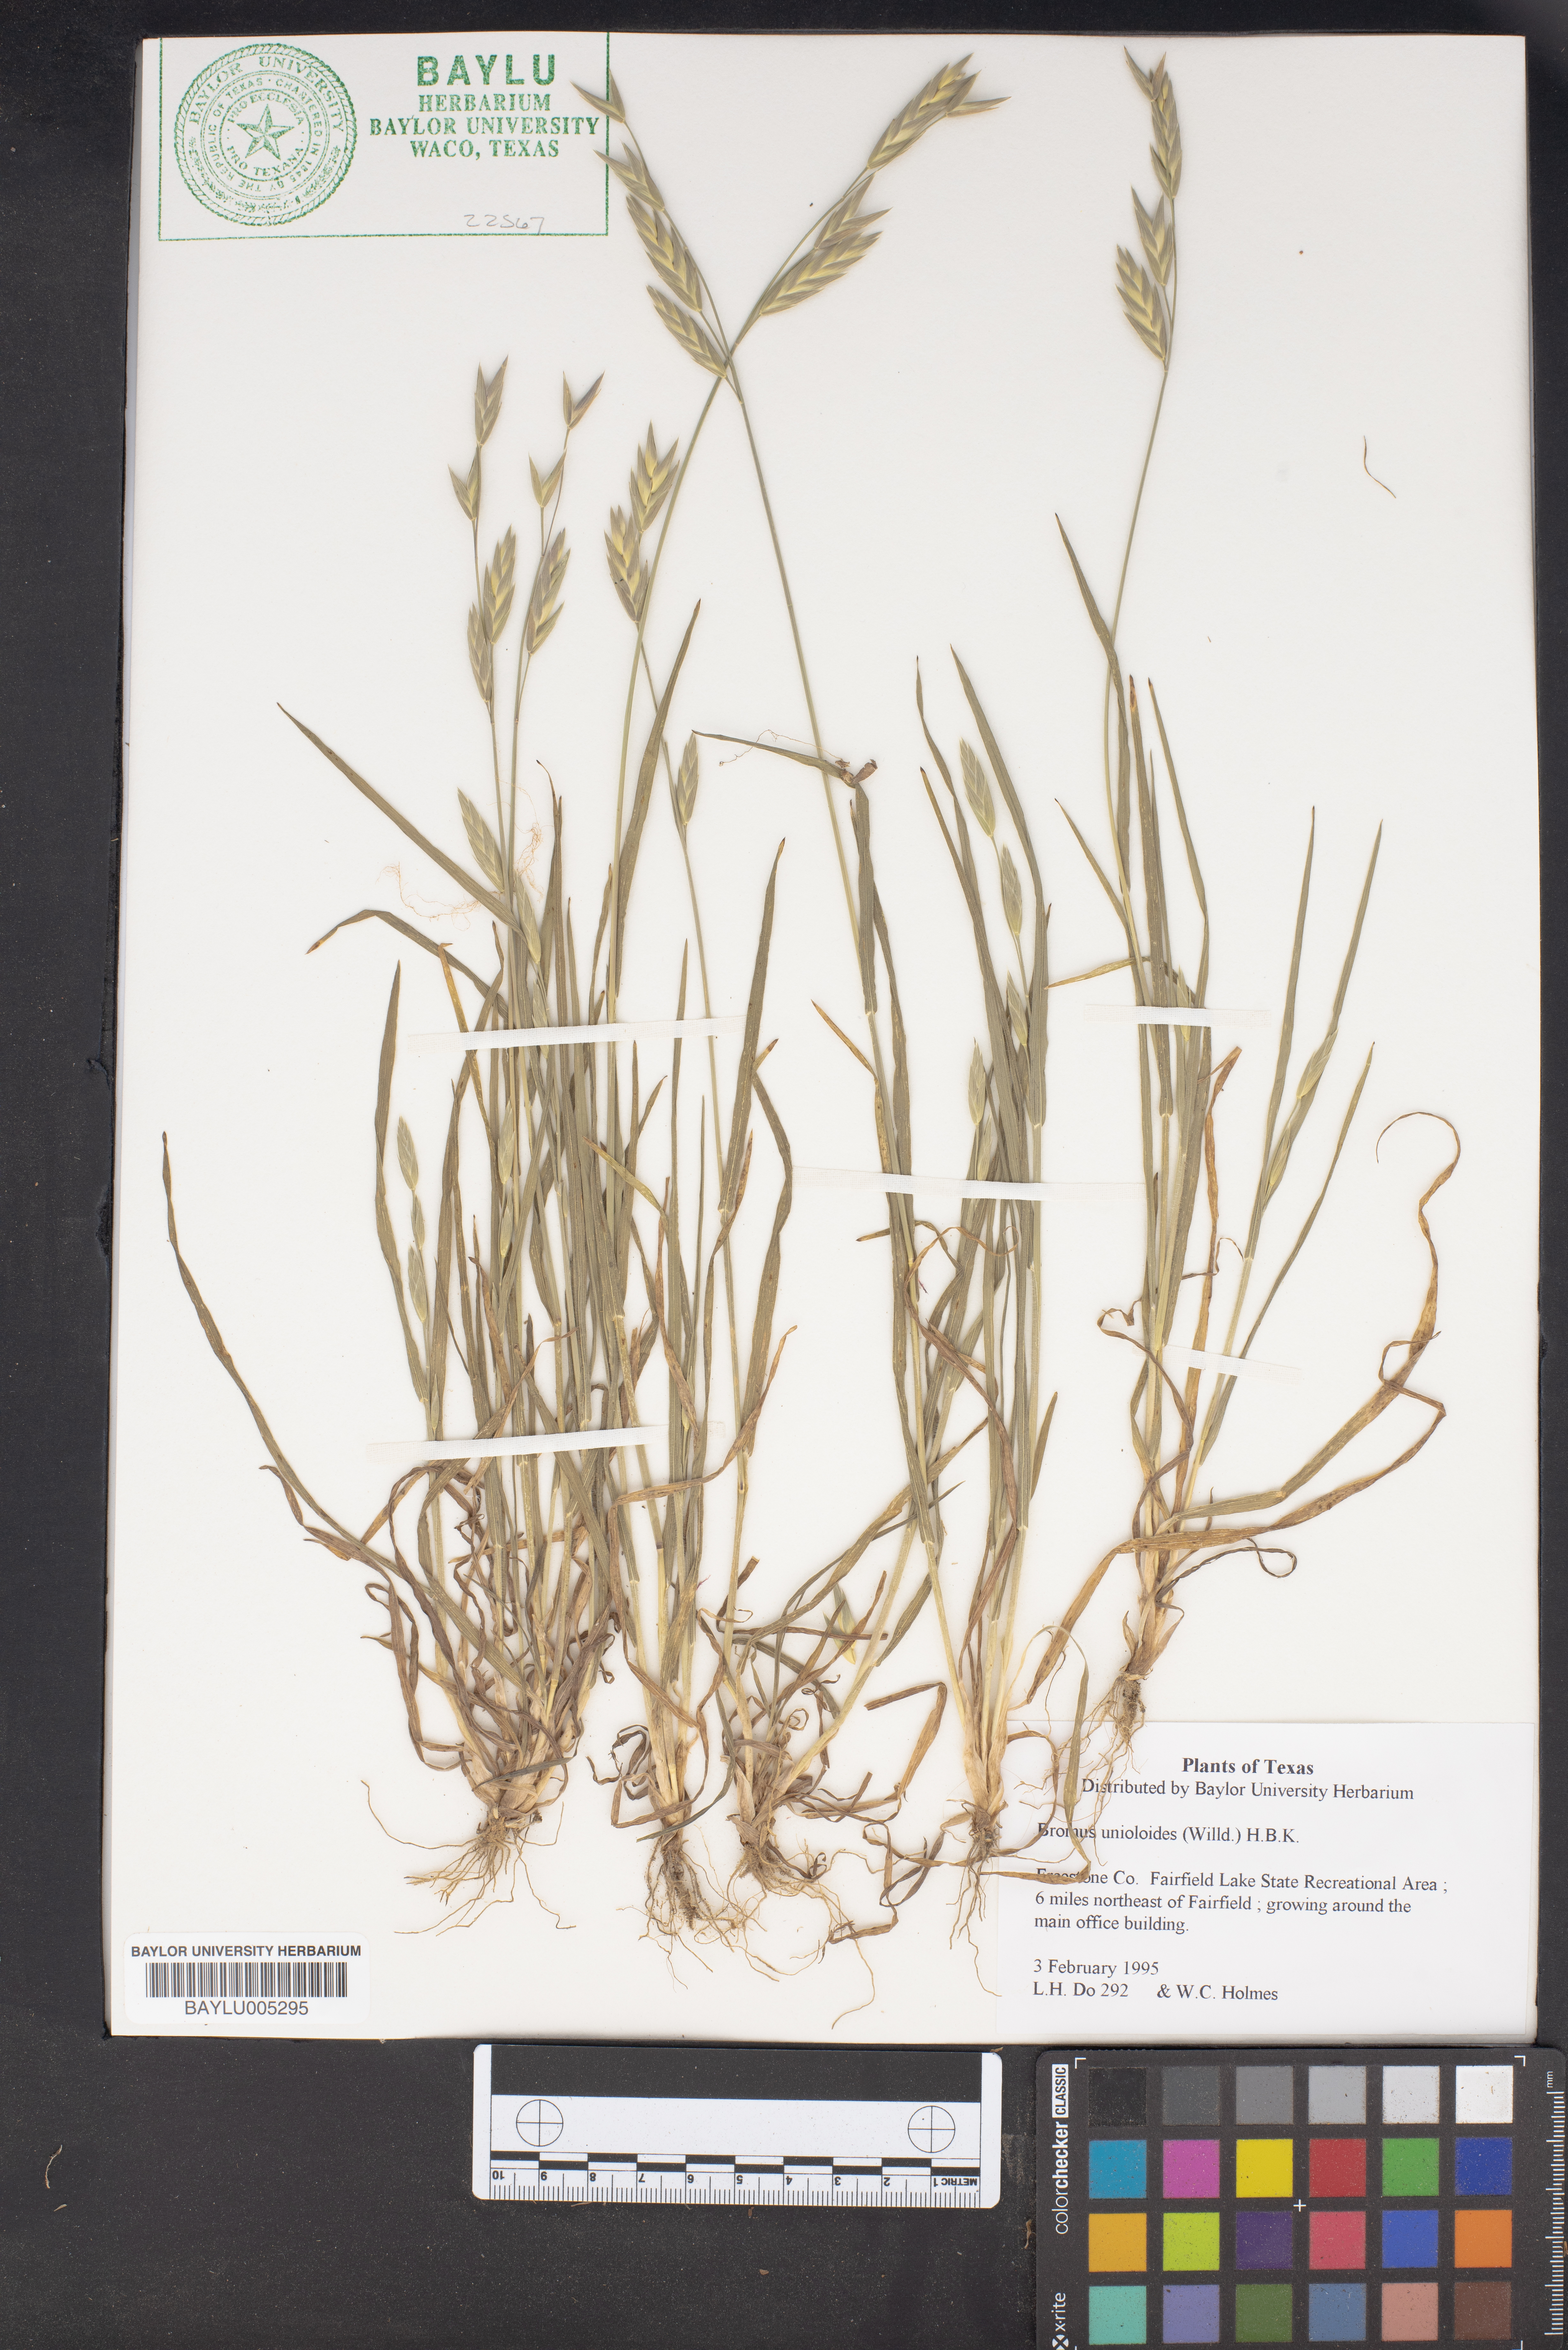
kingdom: Plantae
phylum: Tracheophyta
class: Liliopsida
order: Poales
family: Poaceae
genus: Bromus
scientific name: Bromus catharticus
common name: Rescuegrass
